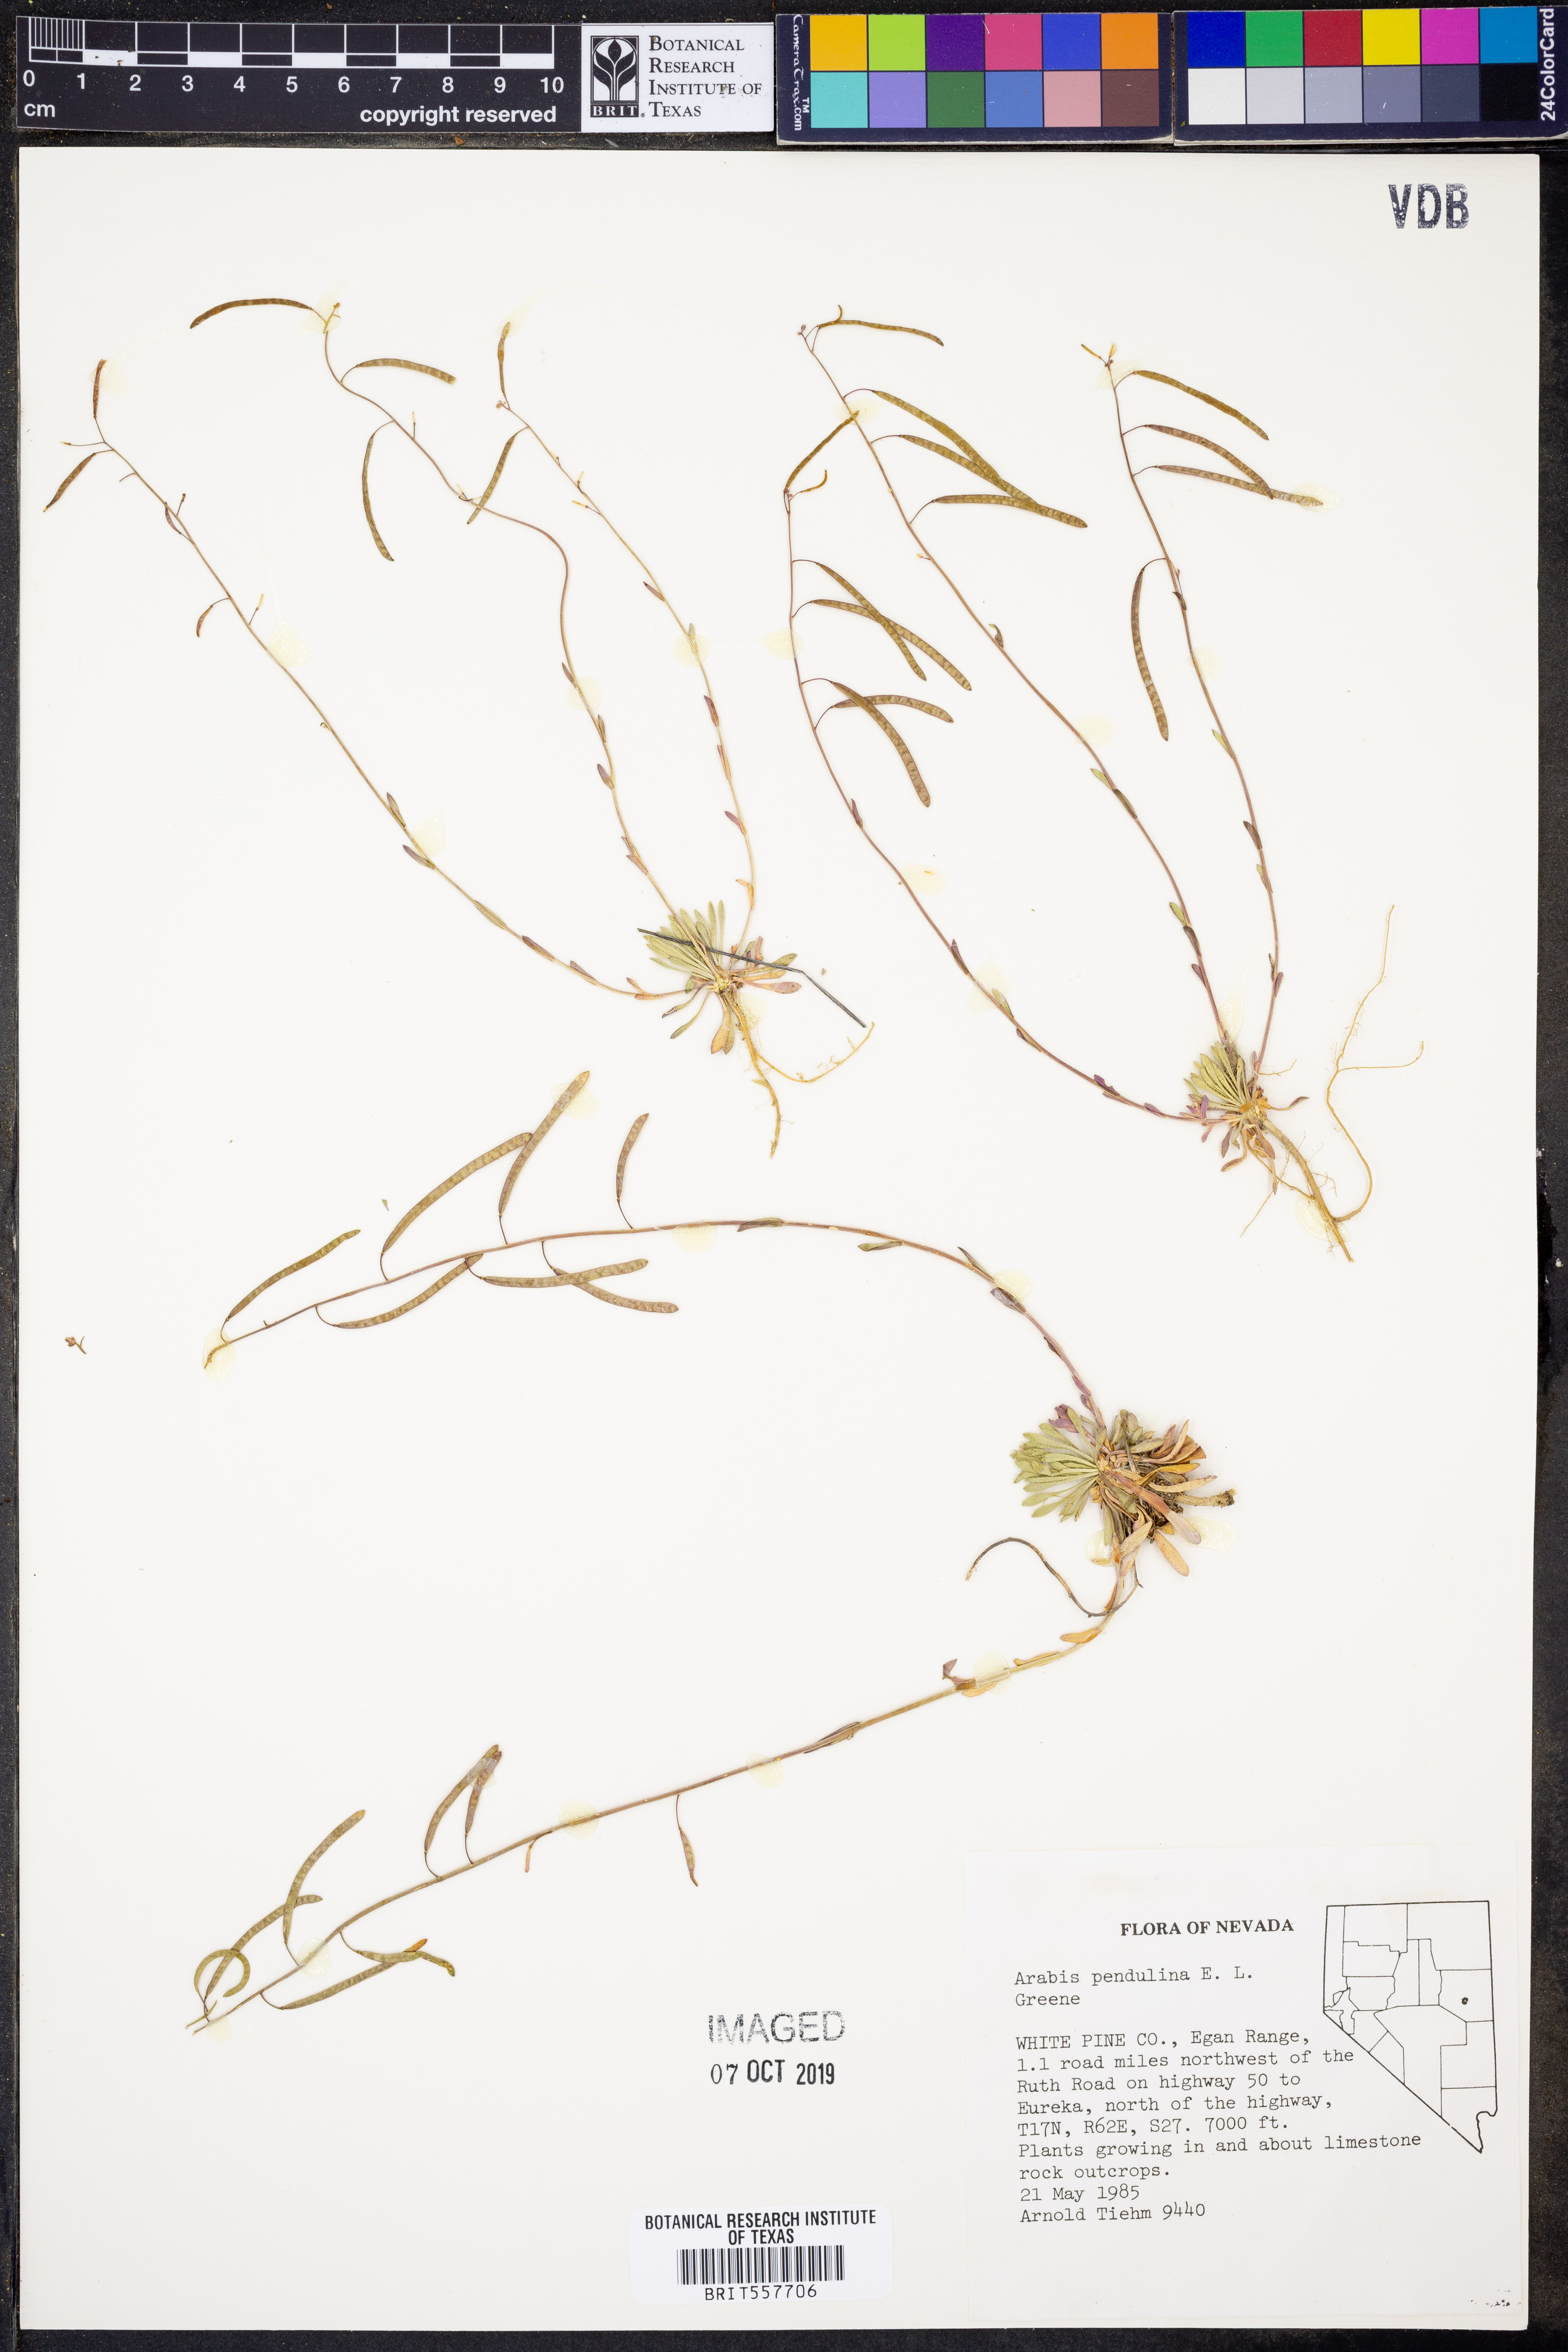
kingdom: Plantae
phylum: Tracheophyta
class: Magnoliopsida
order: Brassicales
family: Brassicaceae
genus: Boechera
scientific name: Boechera pendulina
